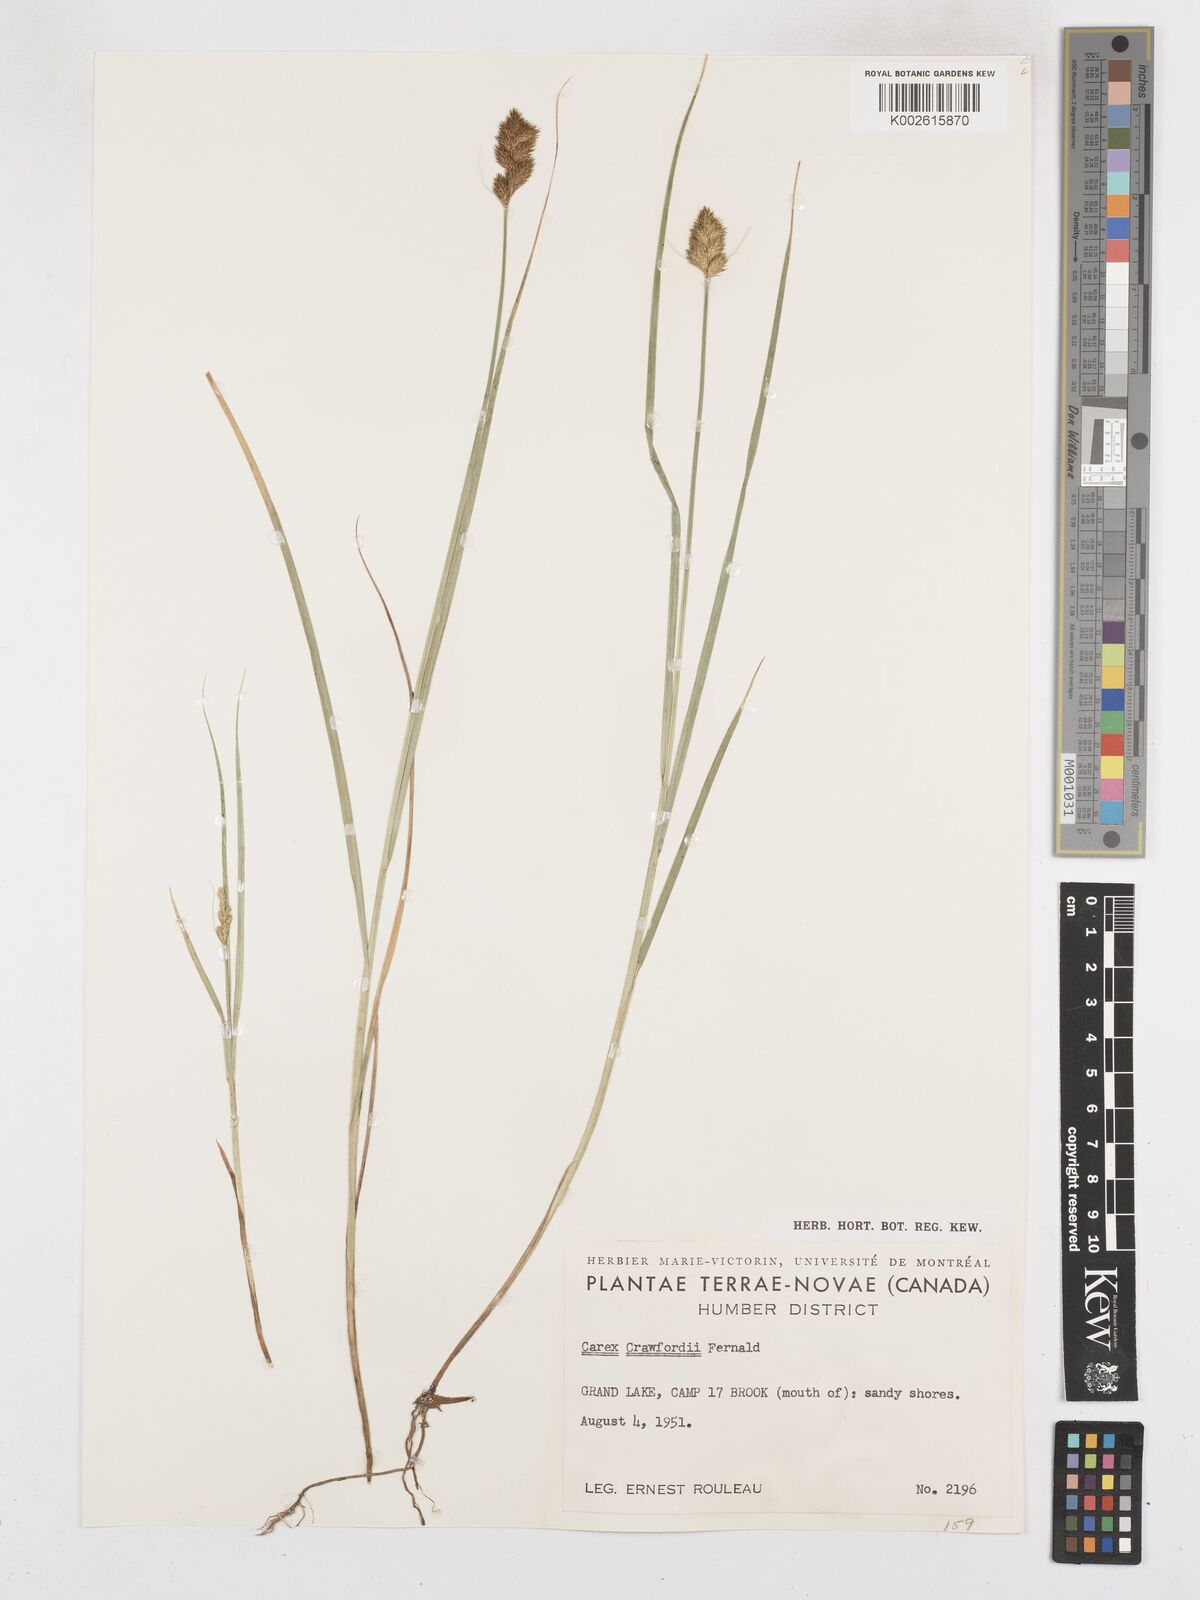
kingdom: Plantae
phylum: Tracheophyta
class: Liliopsida
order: Poales
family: Cyperaceae
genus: Carex
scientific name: Carex crawfordii
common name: Crawford's sedge
